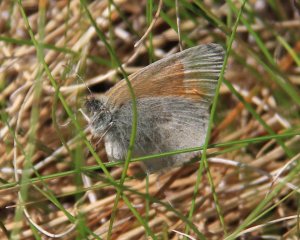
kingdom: Animalia
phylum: Arthropoda
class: Insecta
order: Lepidoptera
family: Nymphalidae
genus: Coenonympha
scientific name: Coenonympha tullia
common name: Large Heath
